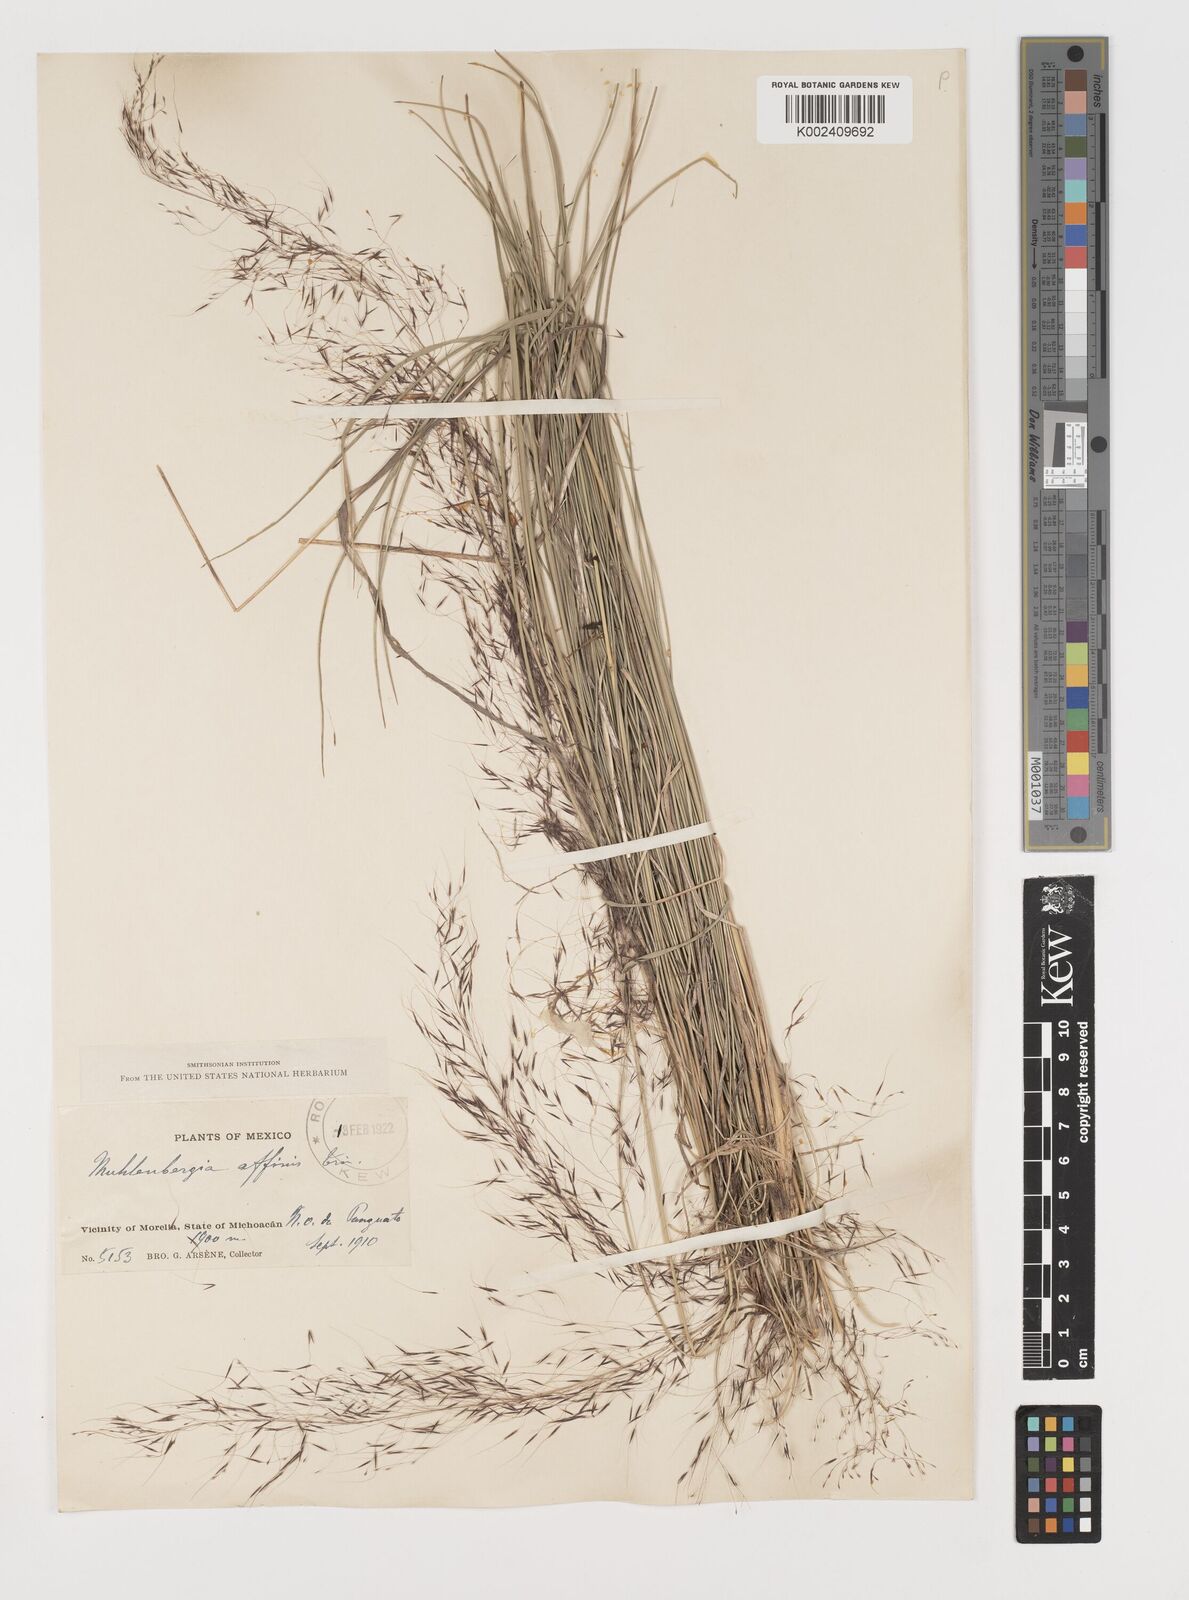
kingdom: Plantae
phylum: Tracheophyta
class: Liliopsida
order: Poales
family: Poaceae
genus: Muhlenbergia
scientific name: Muhlenbergia rigida
